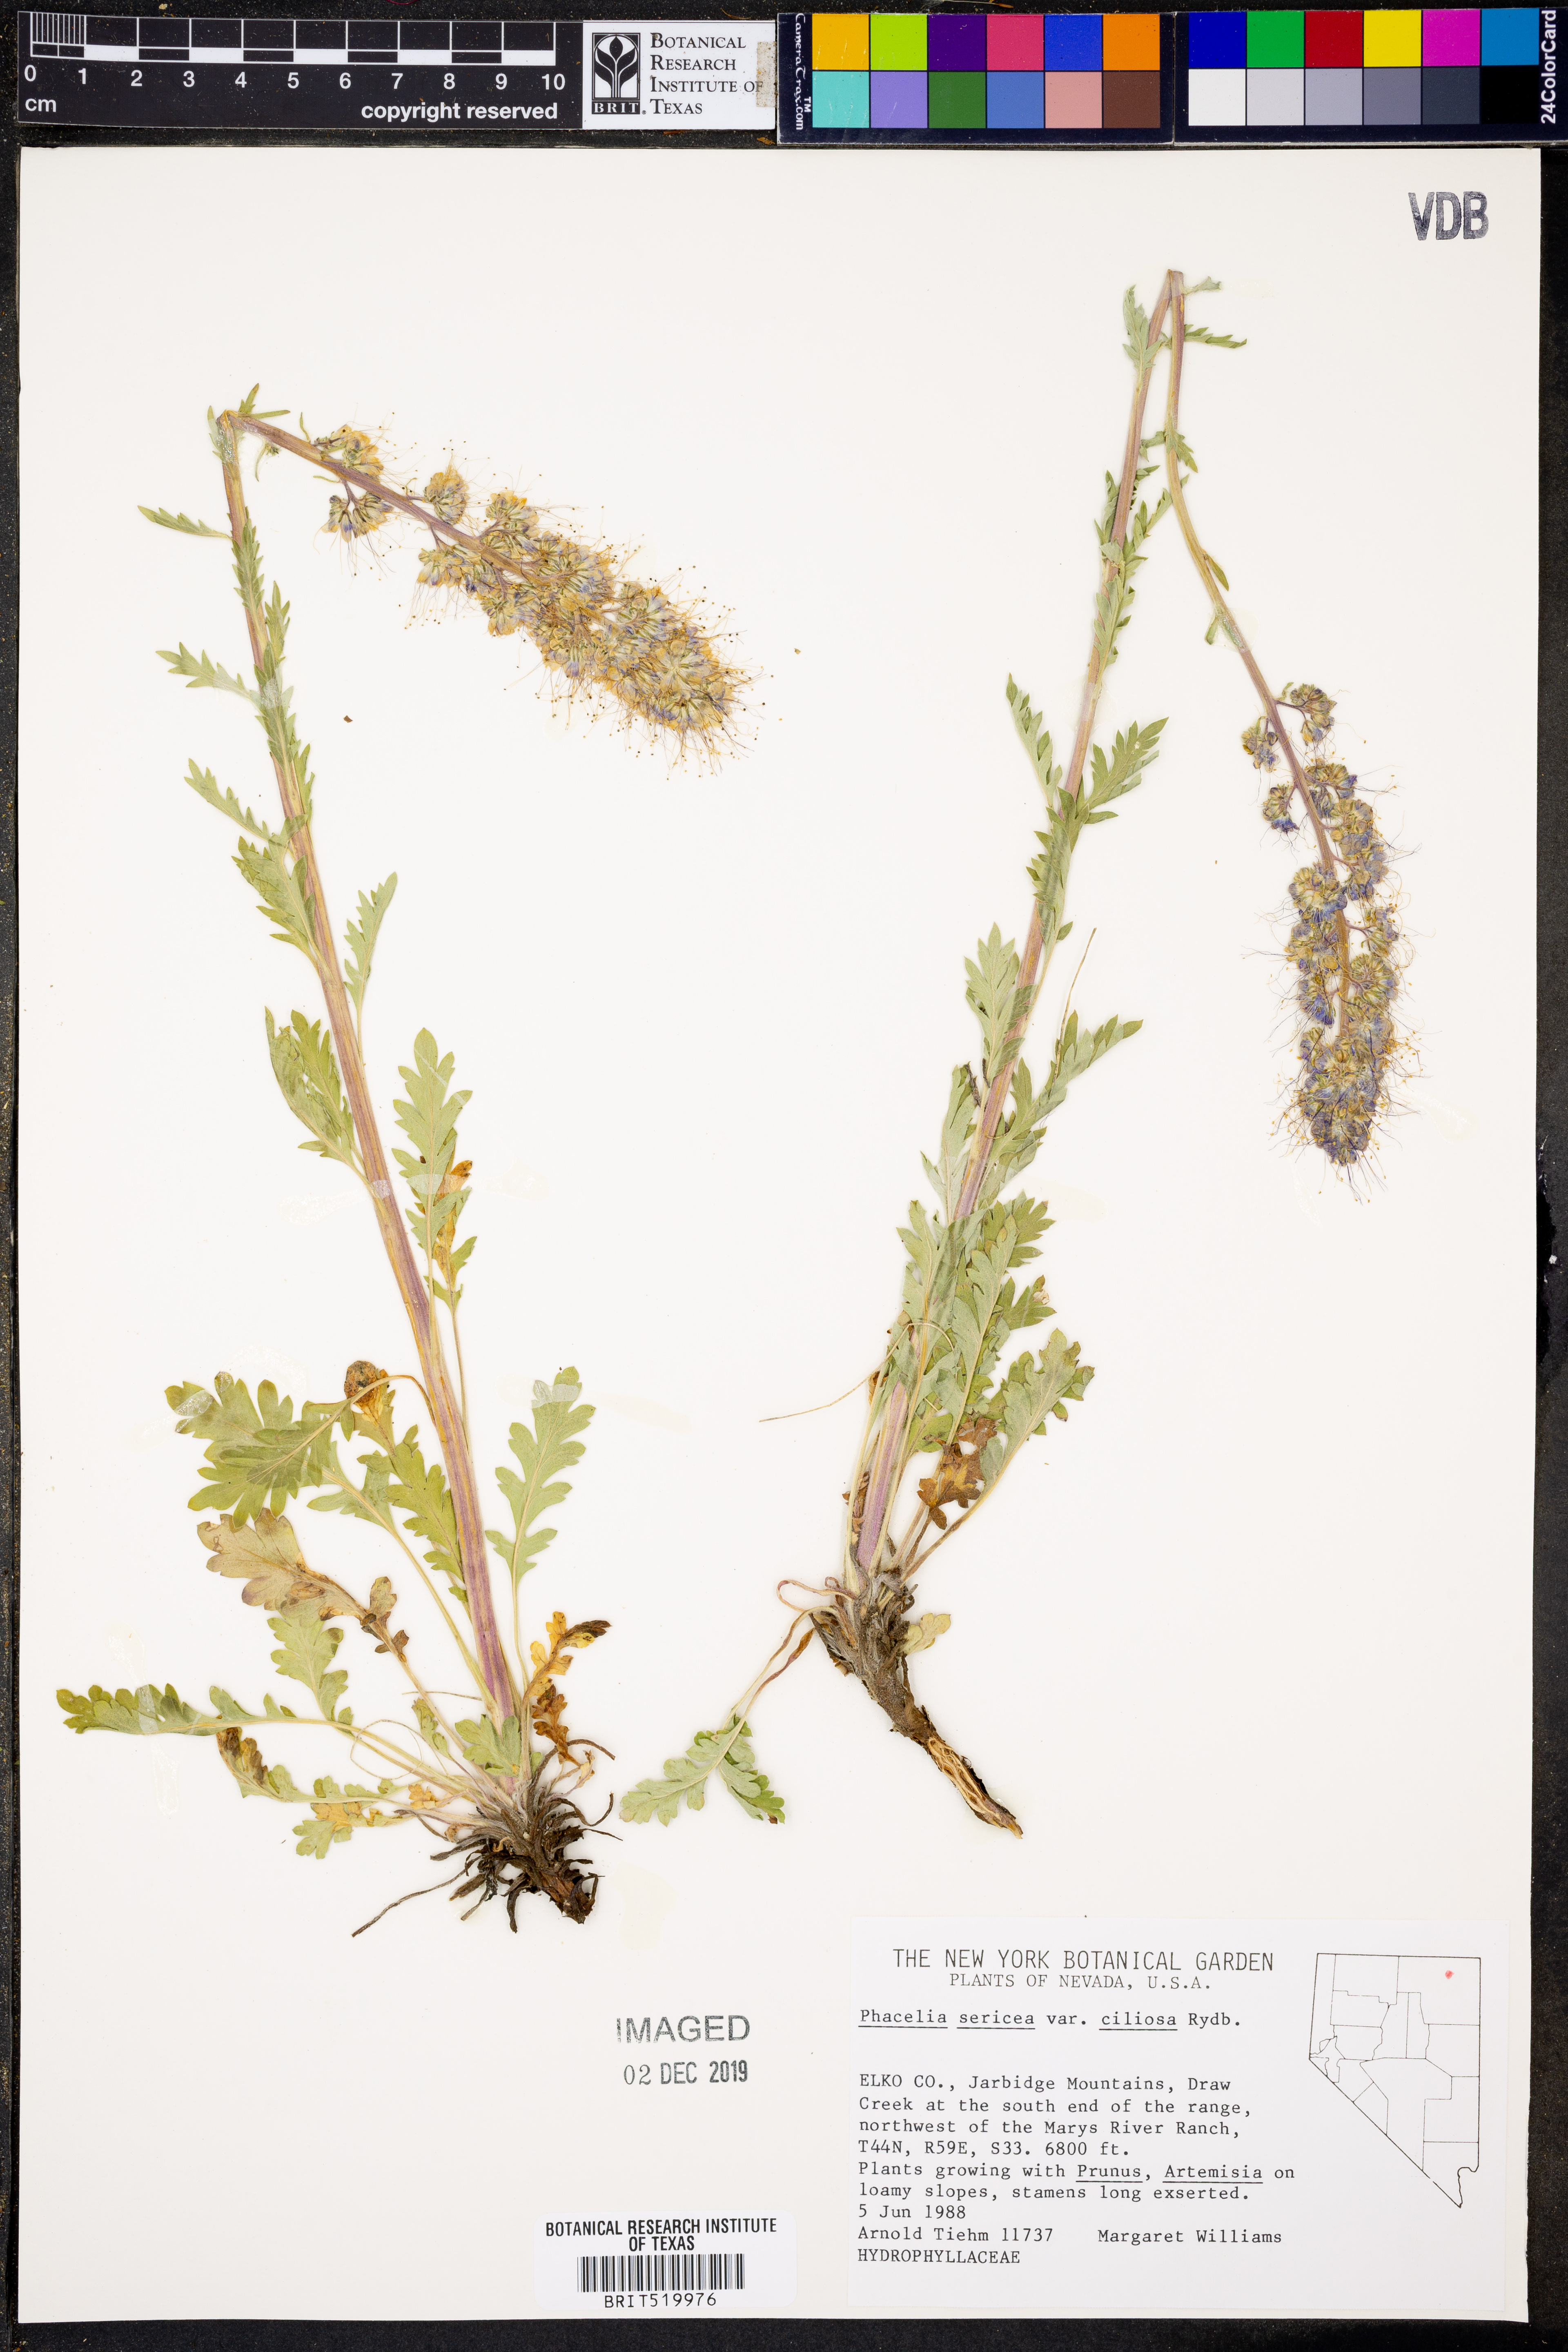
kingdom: Plantae
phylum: Tracheophyta
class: Magnoliopsida
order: Boraginales
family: Hydrophyllaceae
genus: Phacelia
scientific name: Phacelia sericea
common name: Silky phacelia
